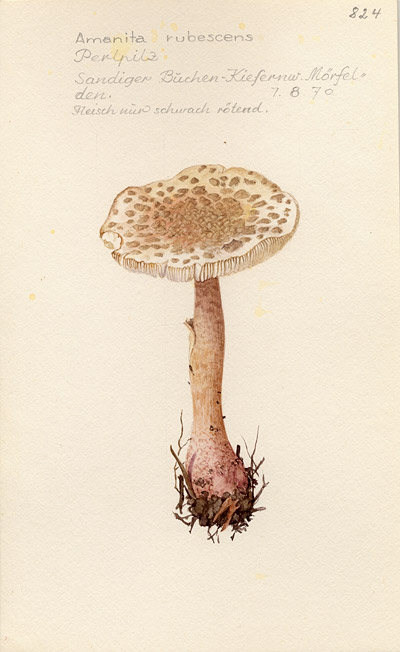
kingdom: Fungi
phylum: Basidiomycota
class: Agaricomycetes
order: Agaricales
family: Amanitaceae
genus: Amanita
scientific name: Amanita rubescens
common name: Blusher
